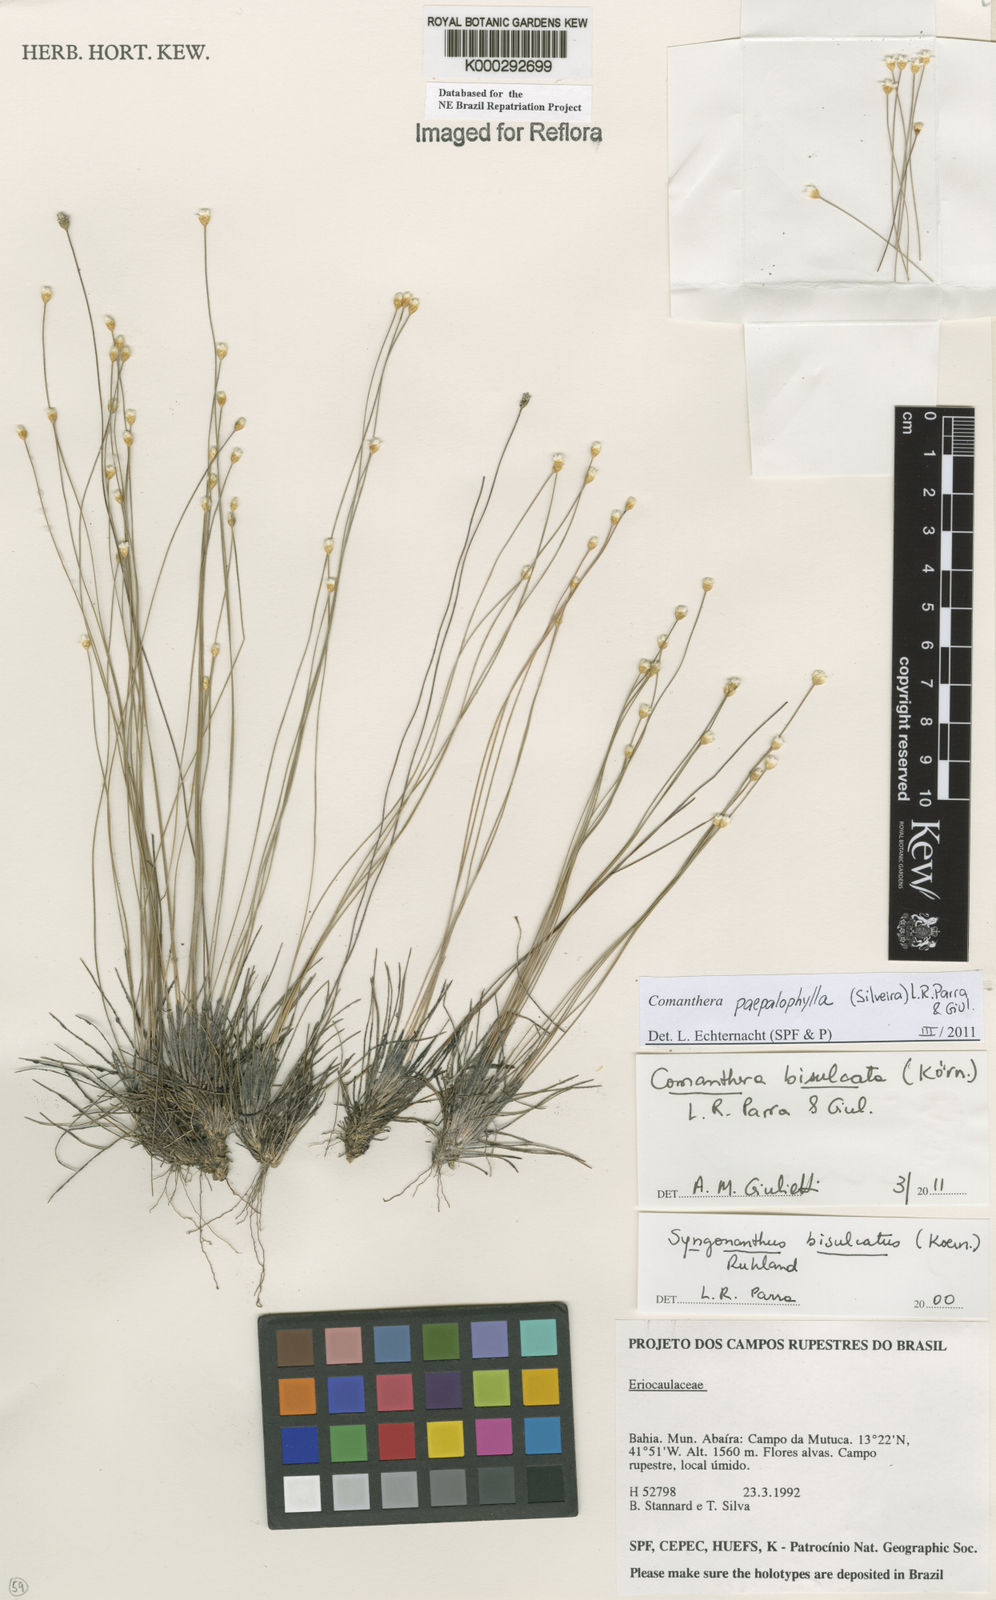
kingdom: Plantae
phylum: Tracheophyta
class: Liliopsida
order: Poales
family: Eriocaulaceae
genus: Comanthera
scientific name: Comanthera bisulcata
